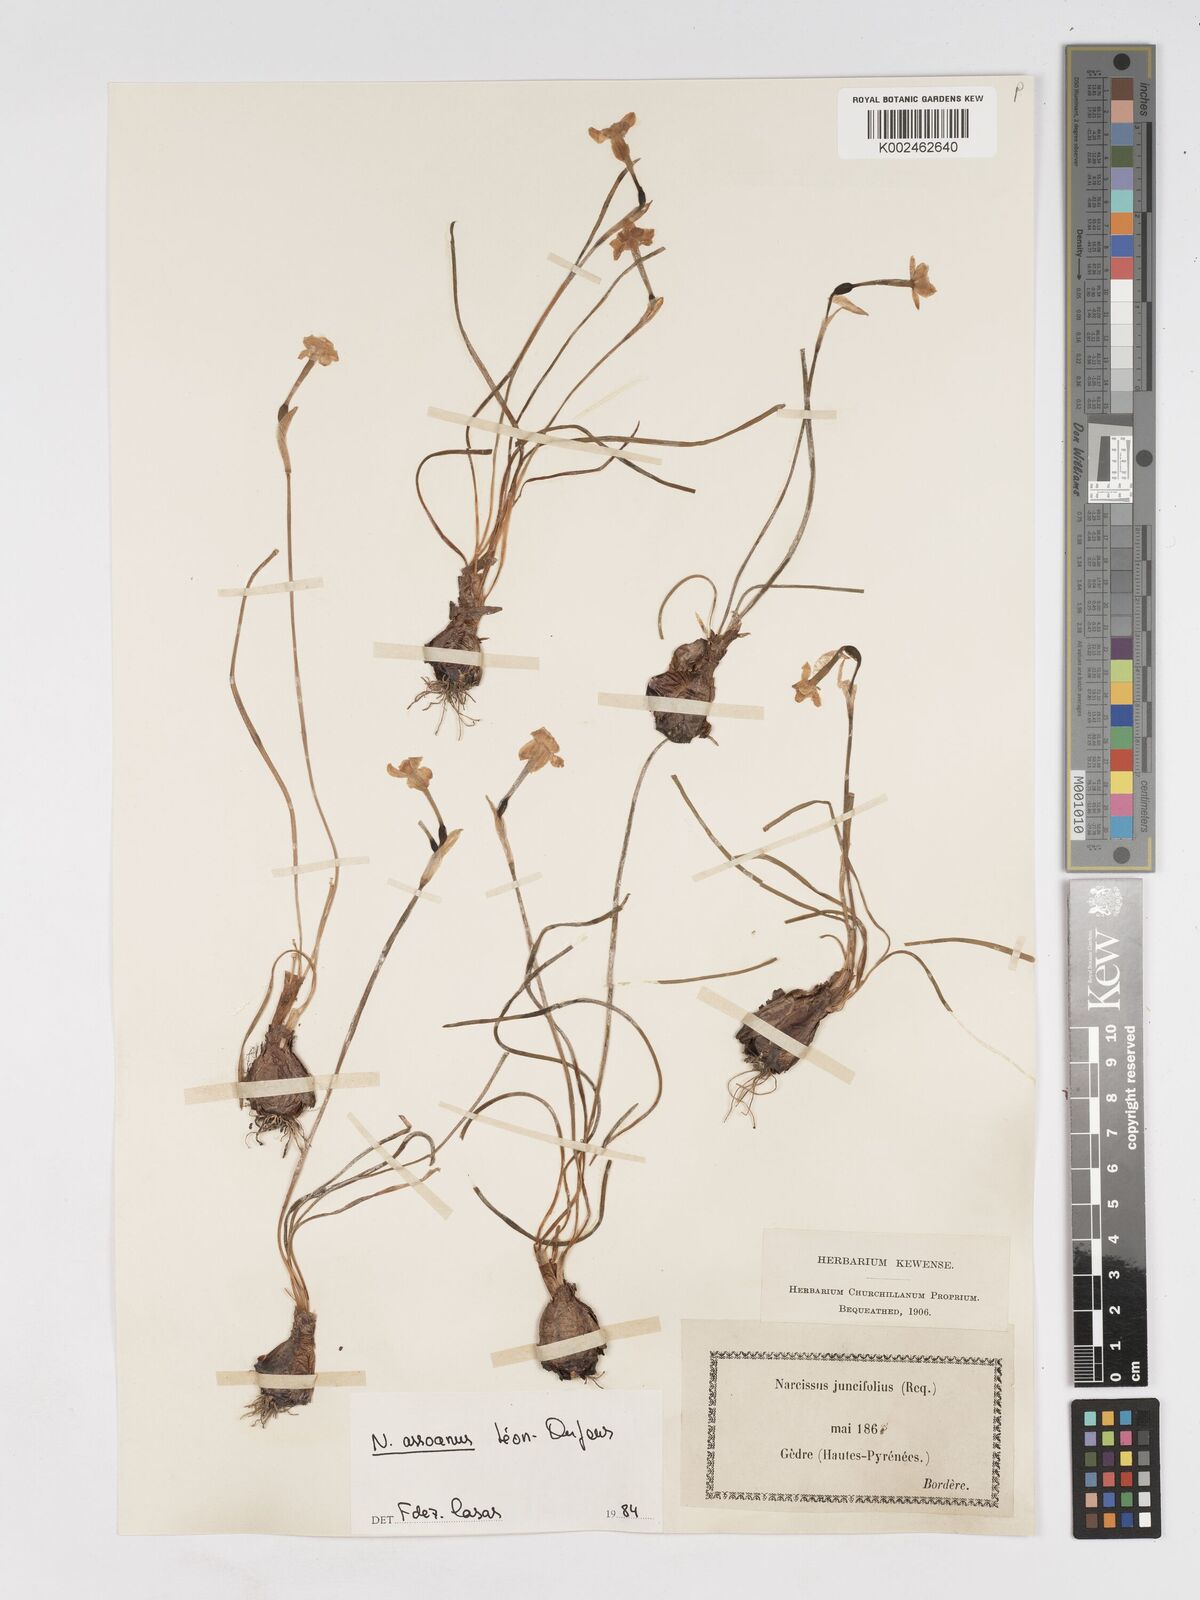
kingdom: Plantae
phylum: Tracheophyta
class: Liliopsida
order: Asparagales
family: Amaryllidaceae
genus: Narcissus
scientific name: Narcissus assoanus
